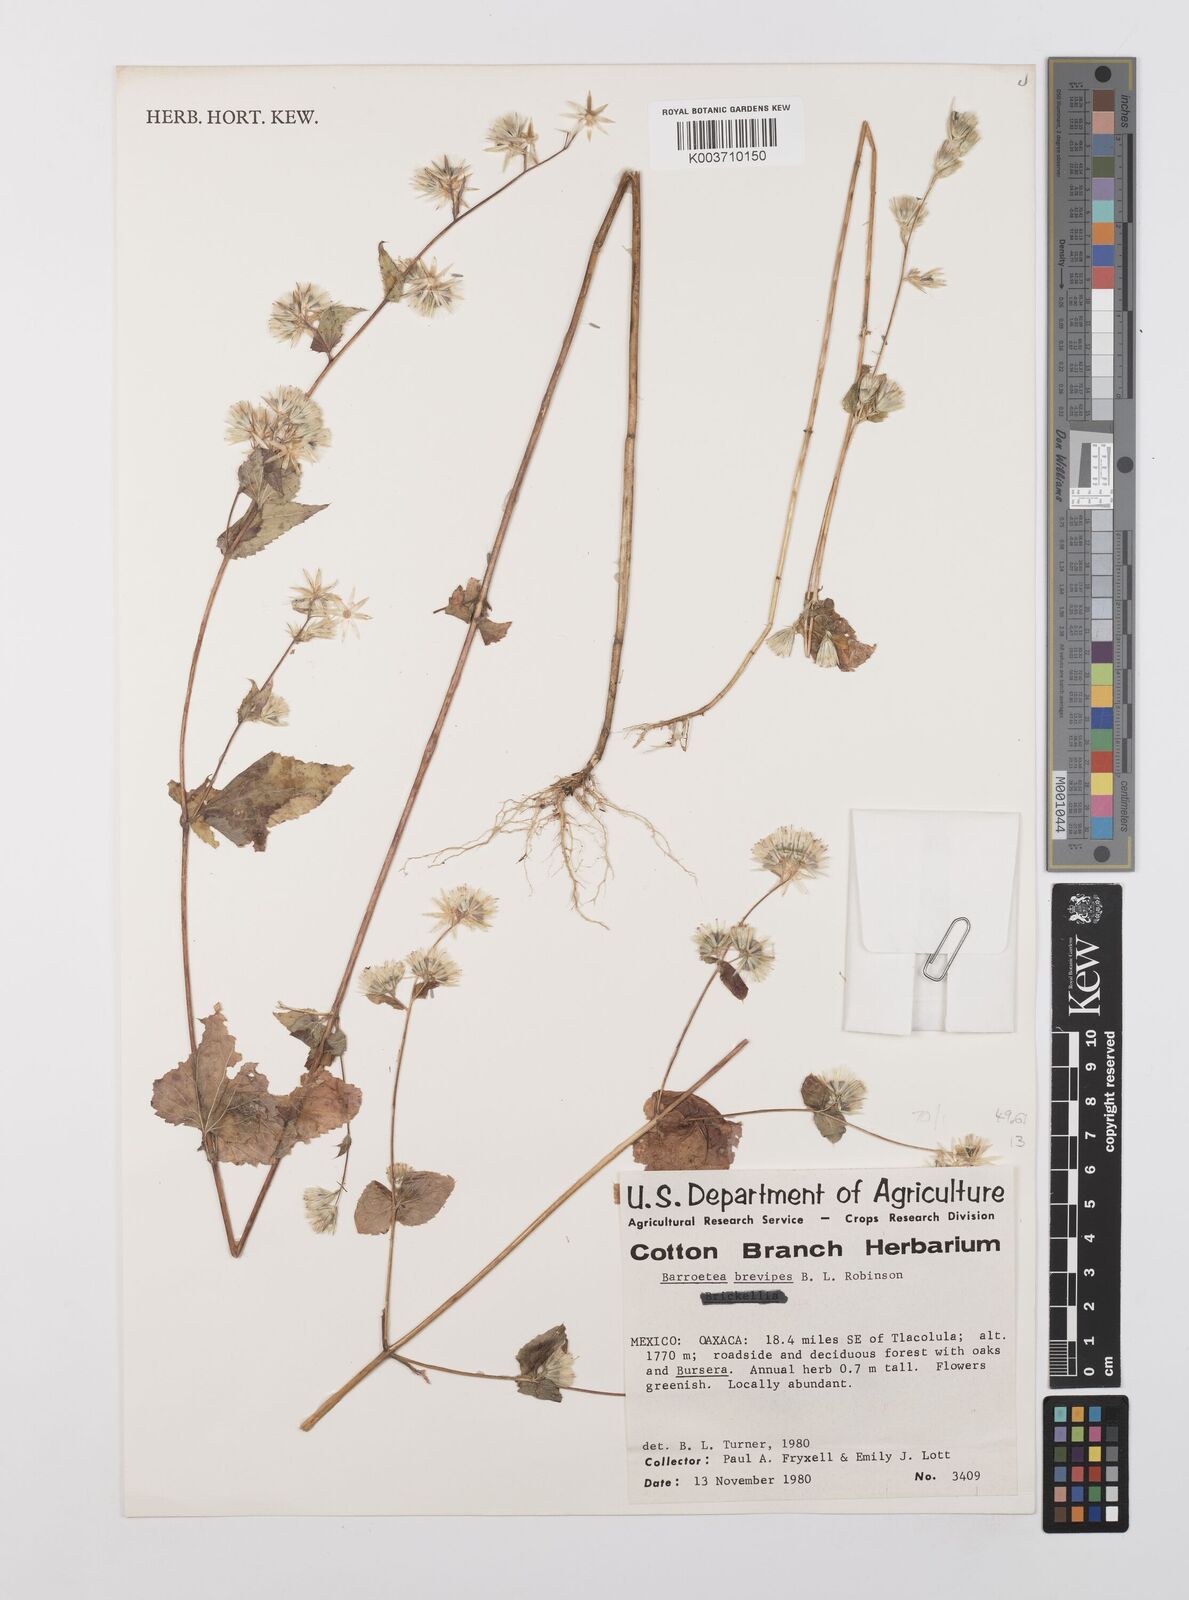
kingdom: Plantae
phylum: Tracheophyta
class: Magnoliopsida
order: Asterales
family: Asteraceae
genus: Brickellia
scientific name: Brickellia laxiflora
